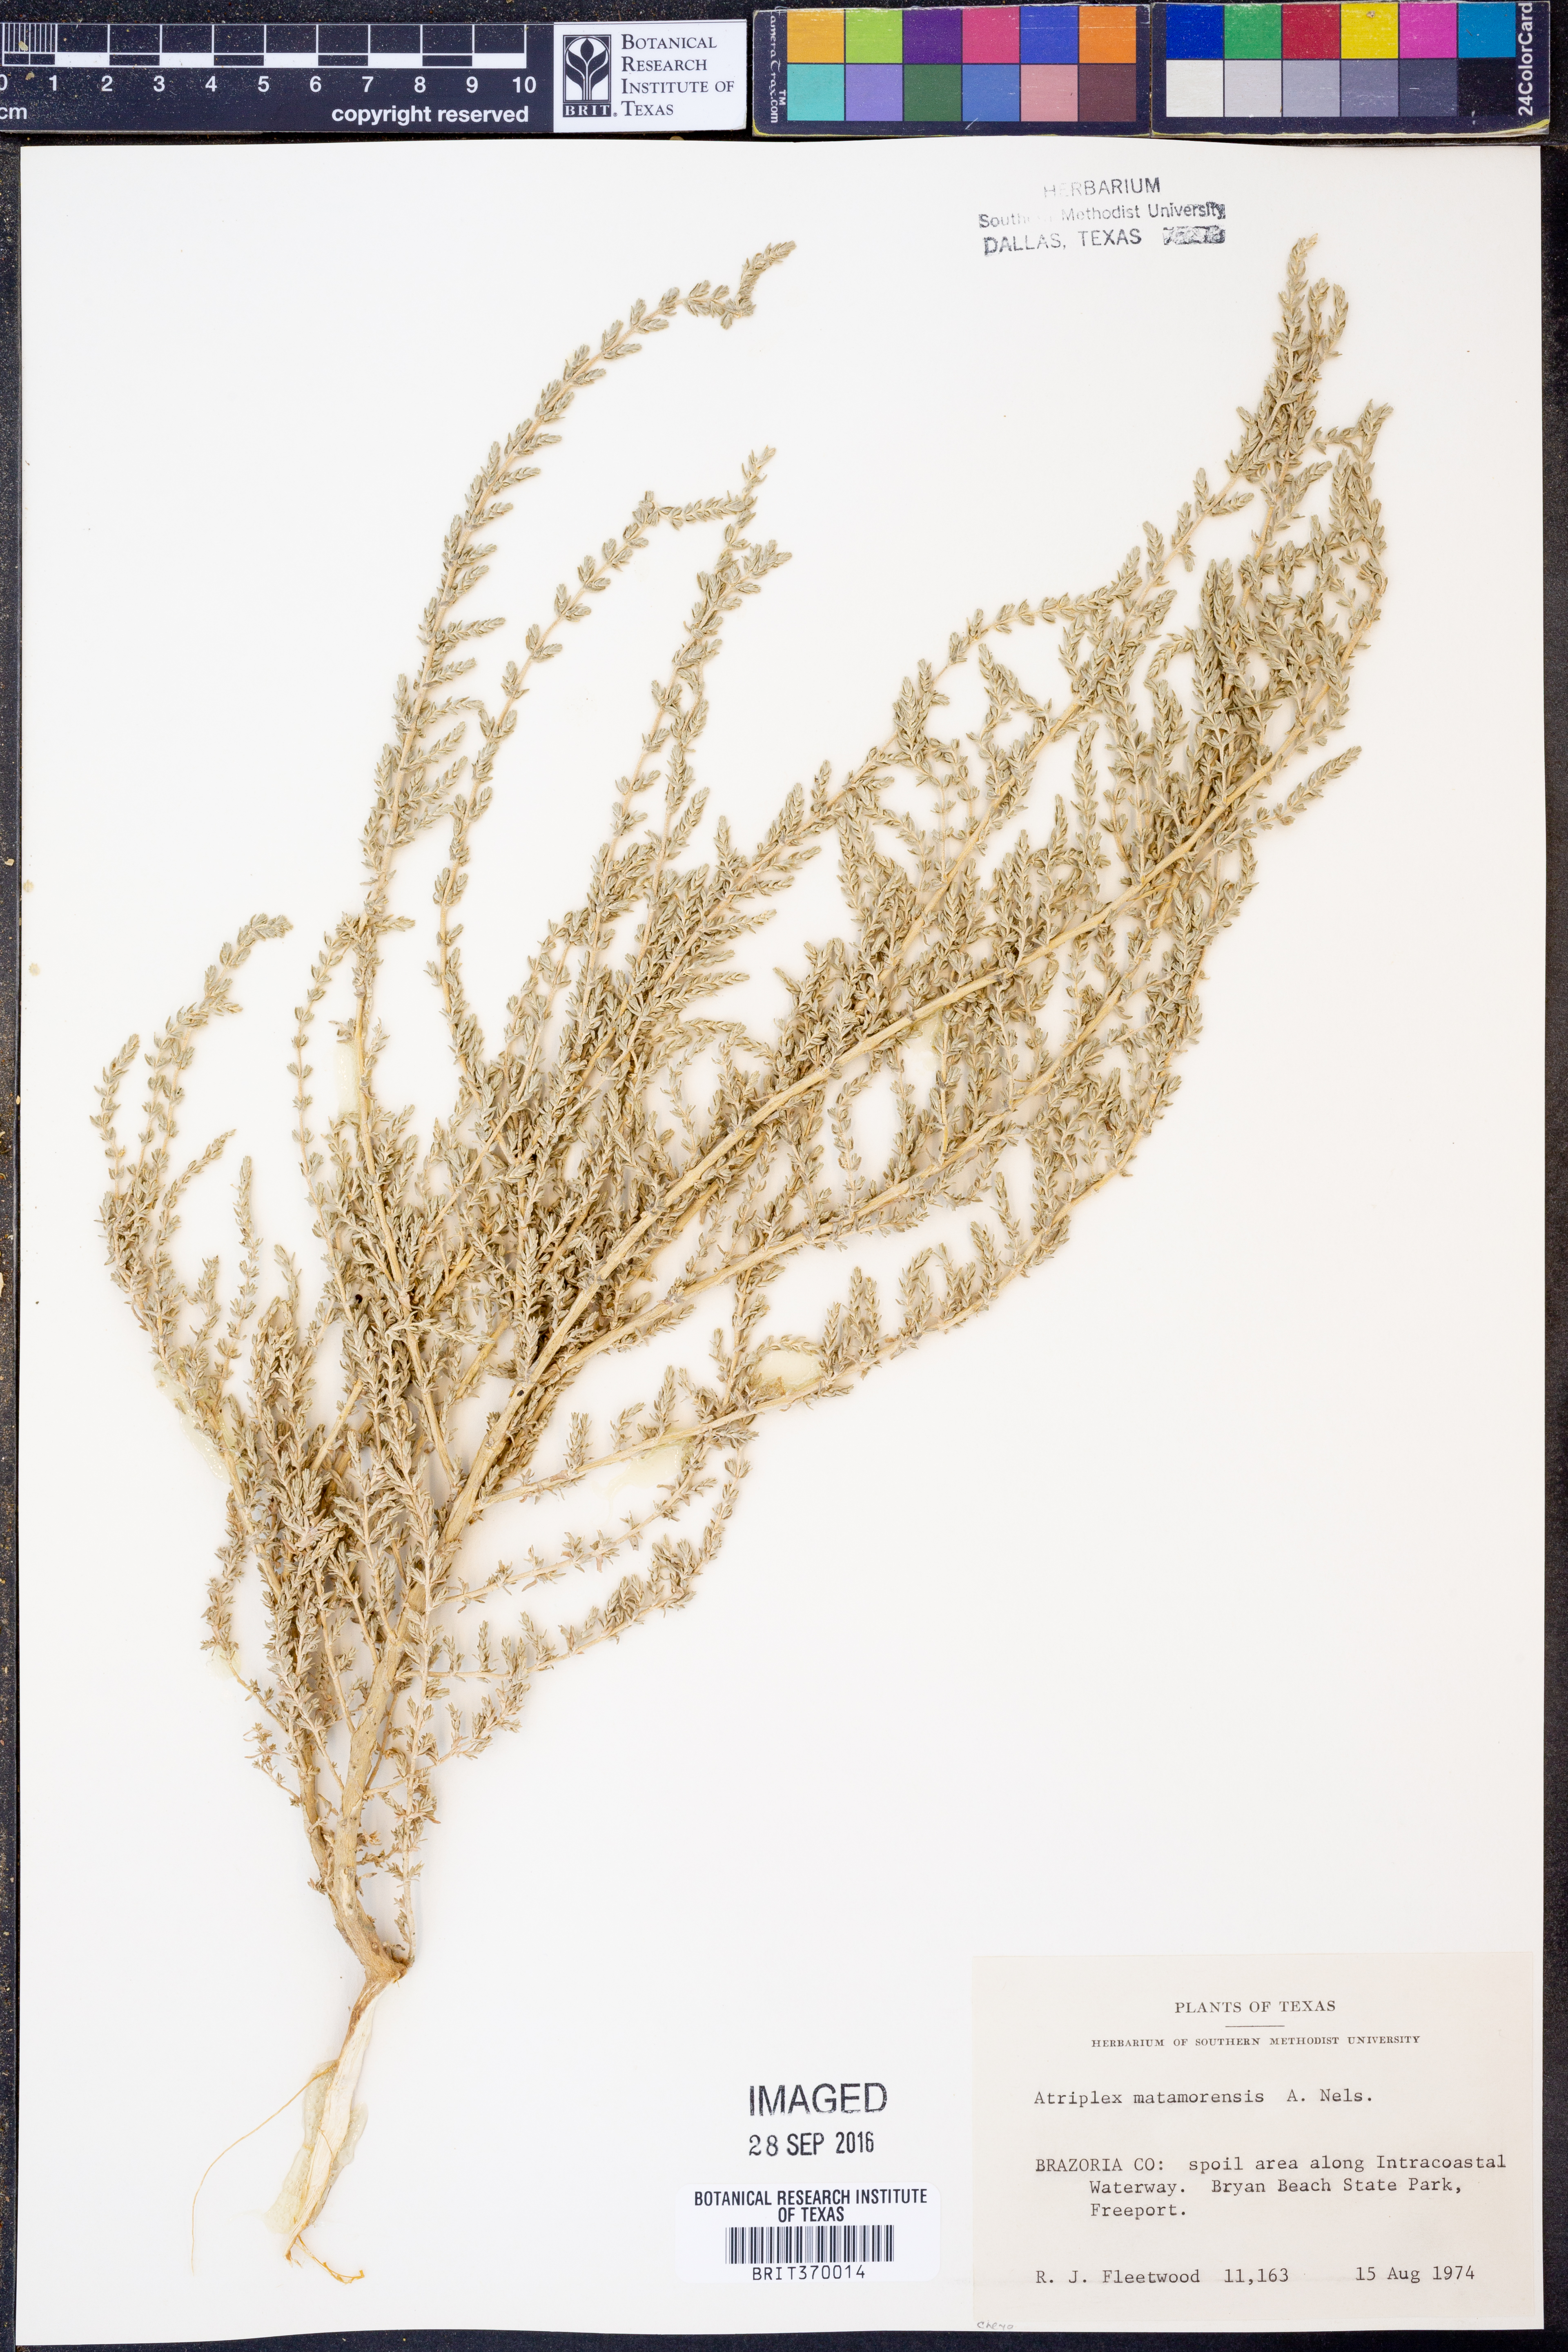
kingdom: Plantae
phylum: Tracheophyta
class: Magnoliopsida
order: Caryophyllales
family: Amaranthaceae
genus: Atriplex
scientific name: Atriplex matamorensis
